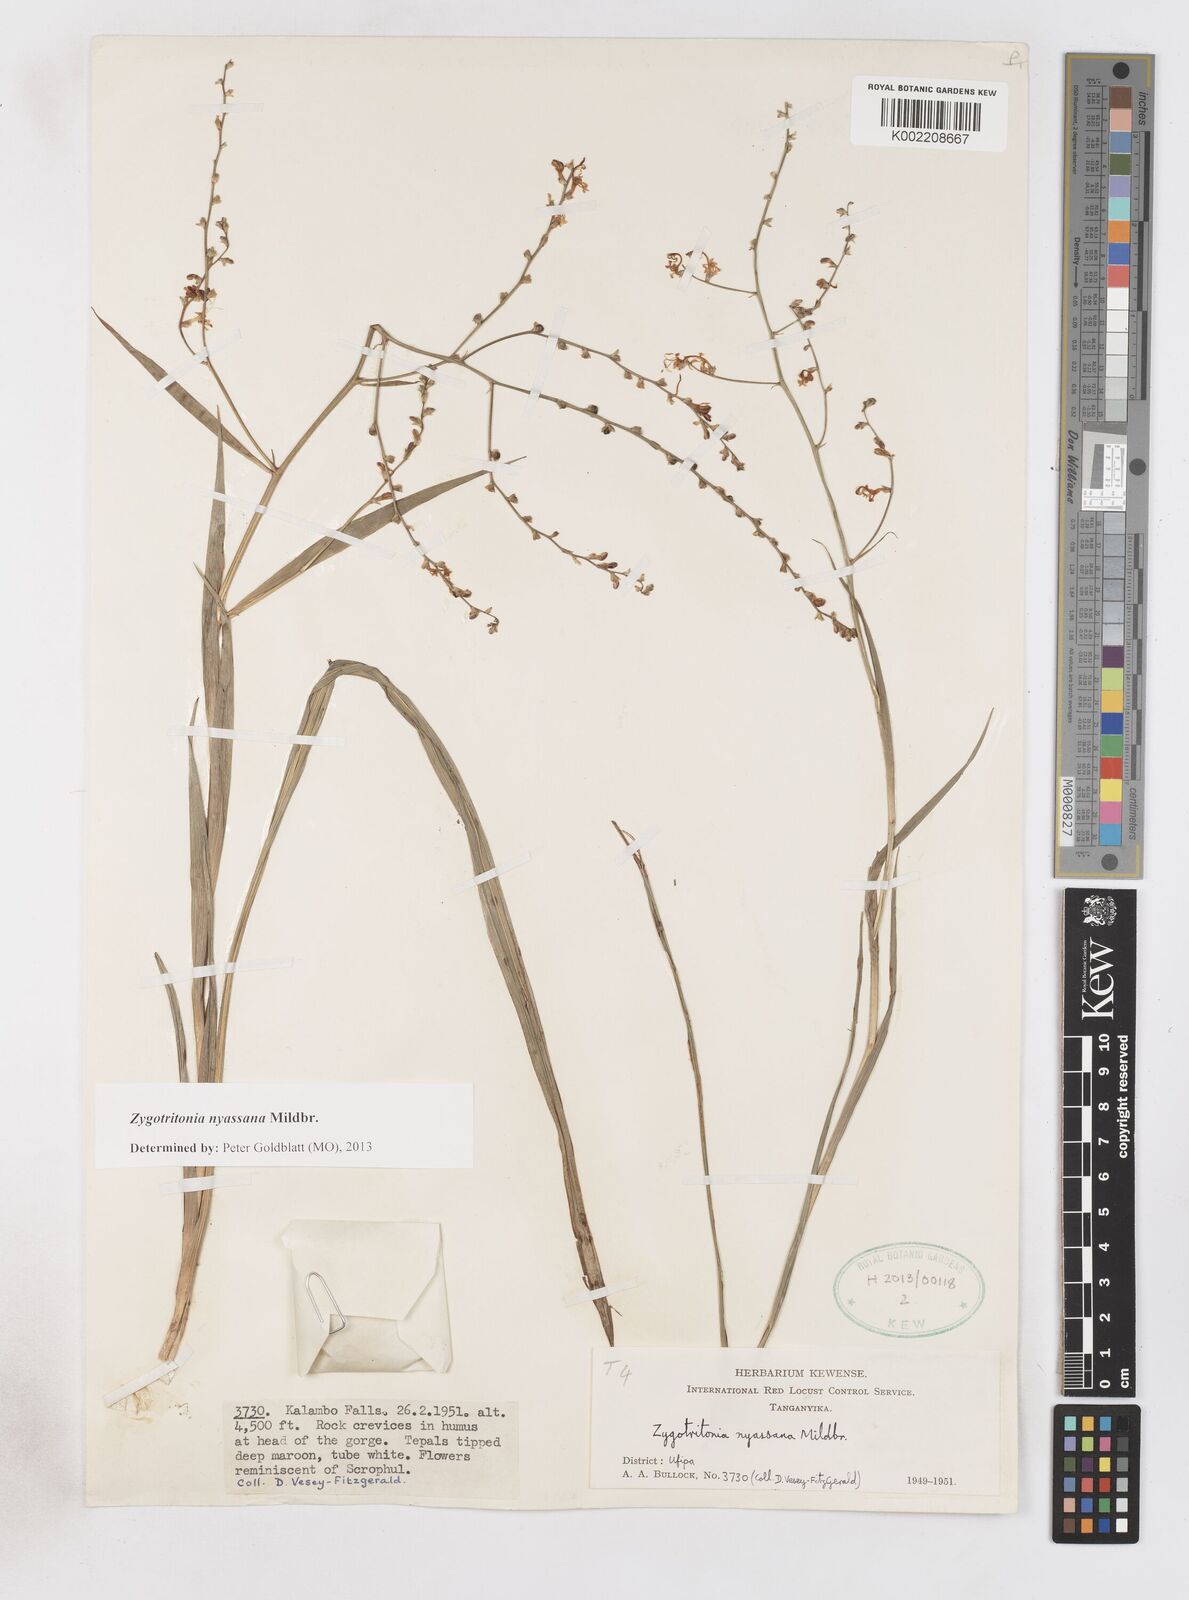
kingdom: Plantae
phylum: Tracheophyta
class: Liliopsida
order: Asparagales
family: Iridaceae
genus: Zygotritonia
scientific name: Zygotritonia nyassana
